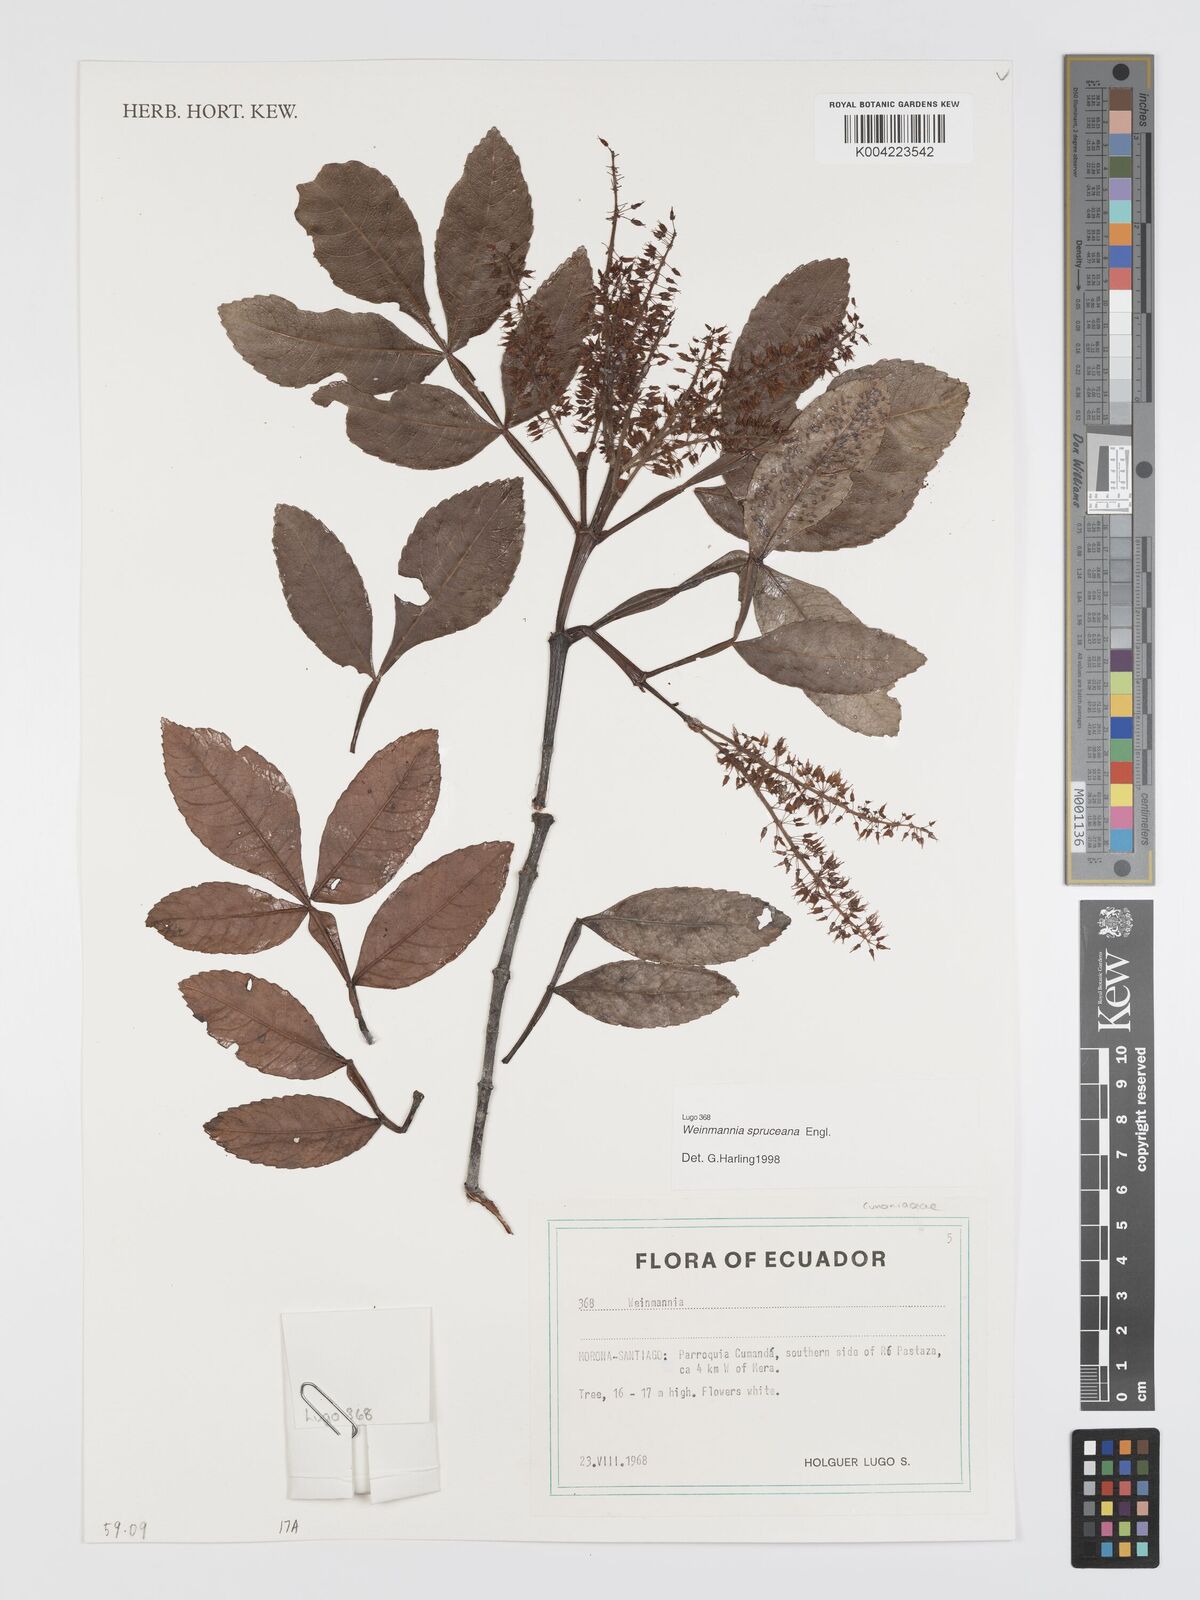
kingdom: Plantae
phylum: Tracheophyta
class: Magnoliopsida
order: Oxalidales
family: Cunoniaceae
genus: Weinmannia
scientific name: Weinmannia spruceana
